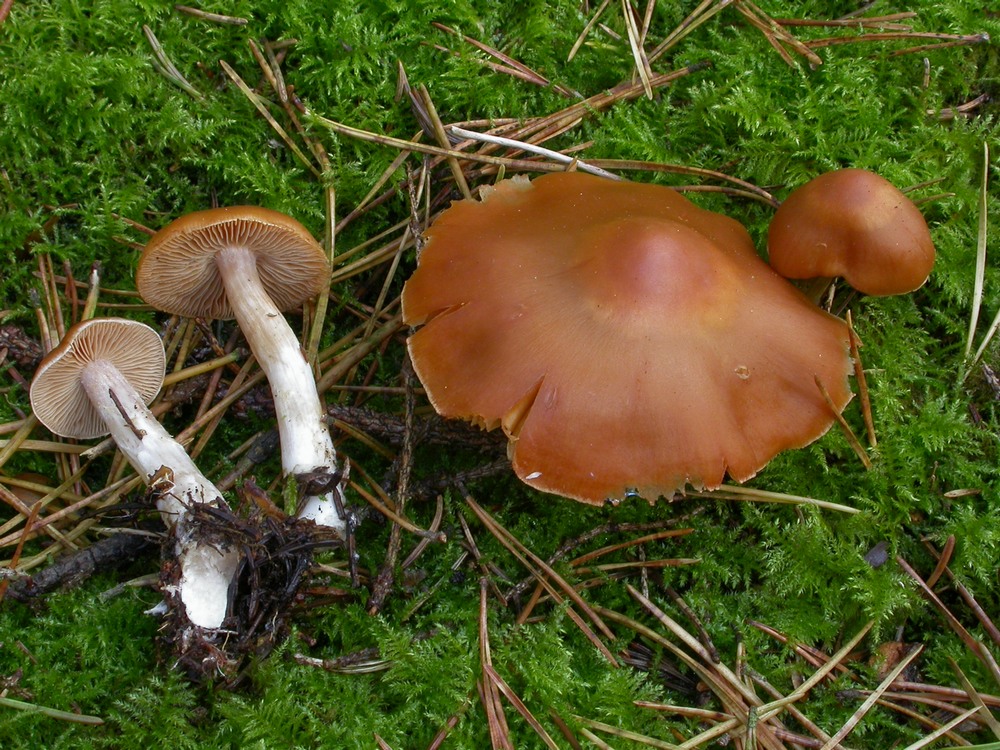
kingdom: Fungi
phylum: Basidiomycota
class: Agaricomycetes
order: Agaricales
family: Cortinariaceae
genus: Cortinarius
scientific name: Cortinarius armeniacus
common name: abrikos-slørhat
